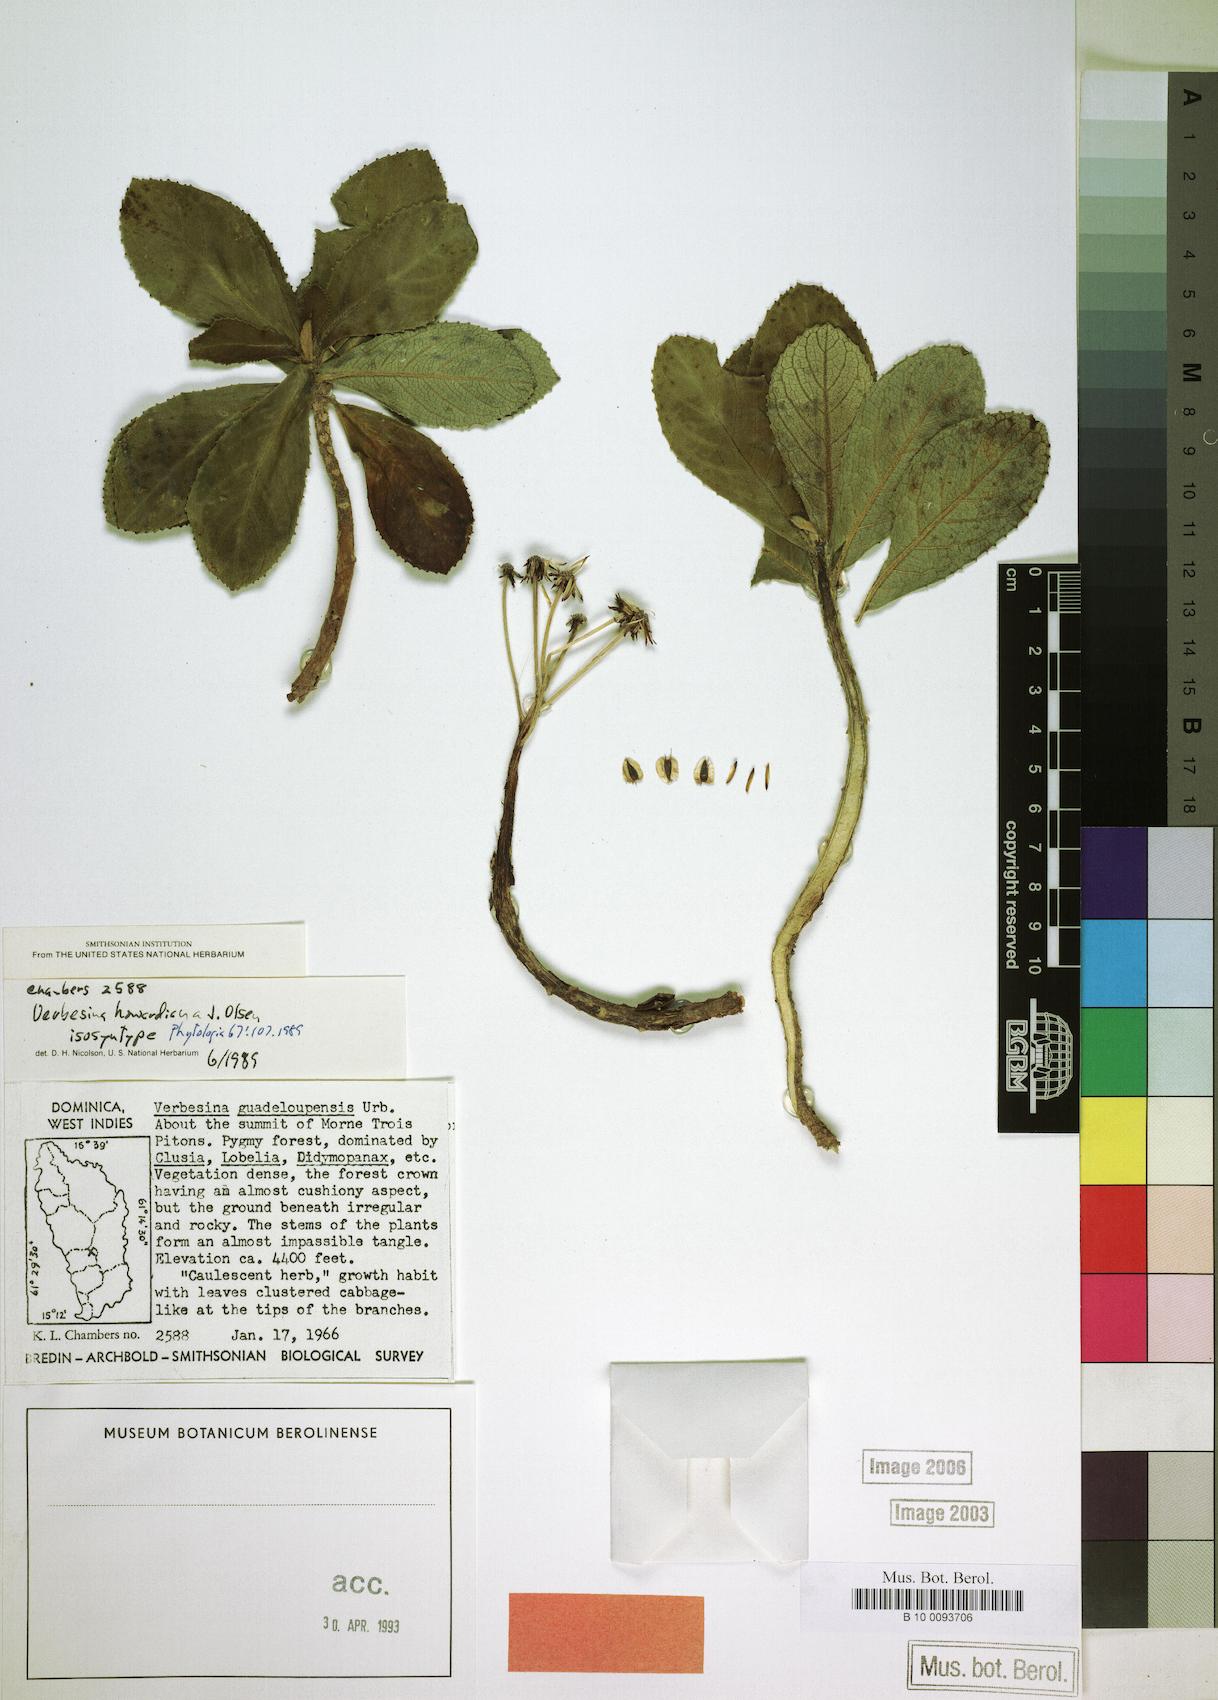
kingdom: Plantae
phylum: Tracheophyta
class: Magnoliopsida
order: Asterales
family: Asteraceae
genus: Verbesina
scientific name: Verbesina howardiana
